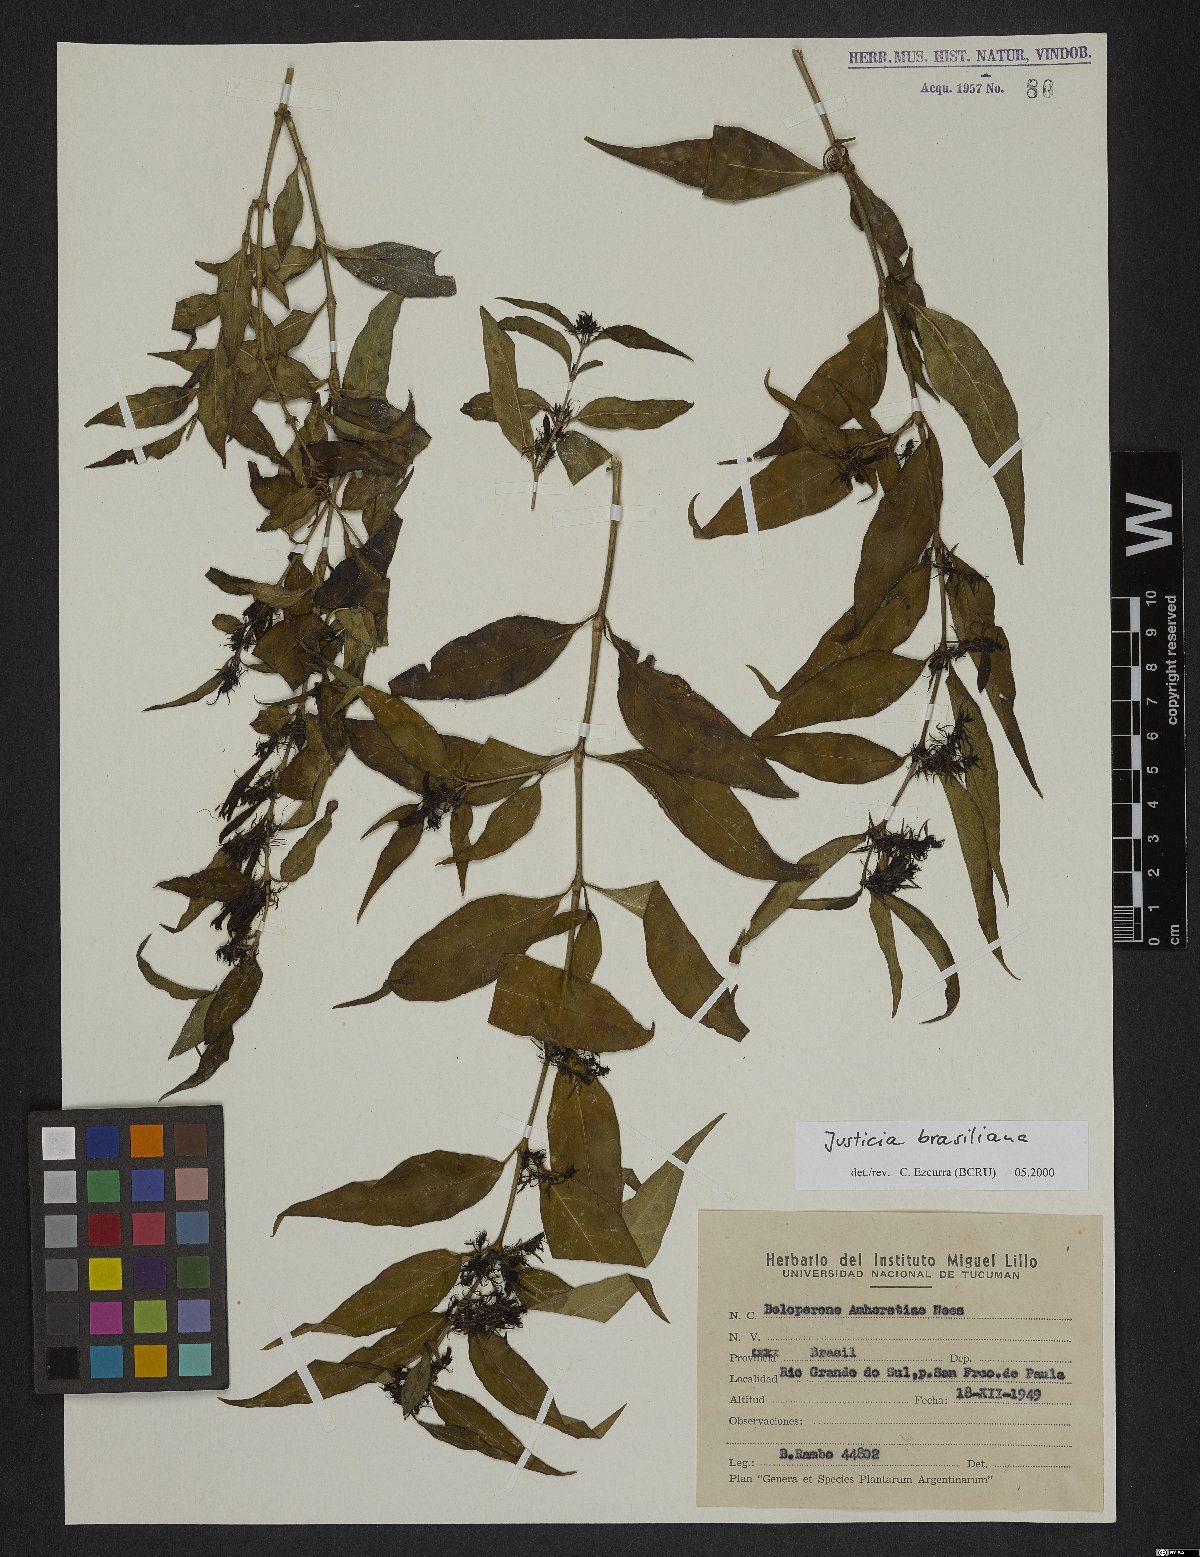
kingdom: Plantae
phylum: Tracheophyta
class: Magnoliopsida
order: Lamiales
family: Acanthaceae
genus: Justicia
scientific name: Justicia brasiliana
